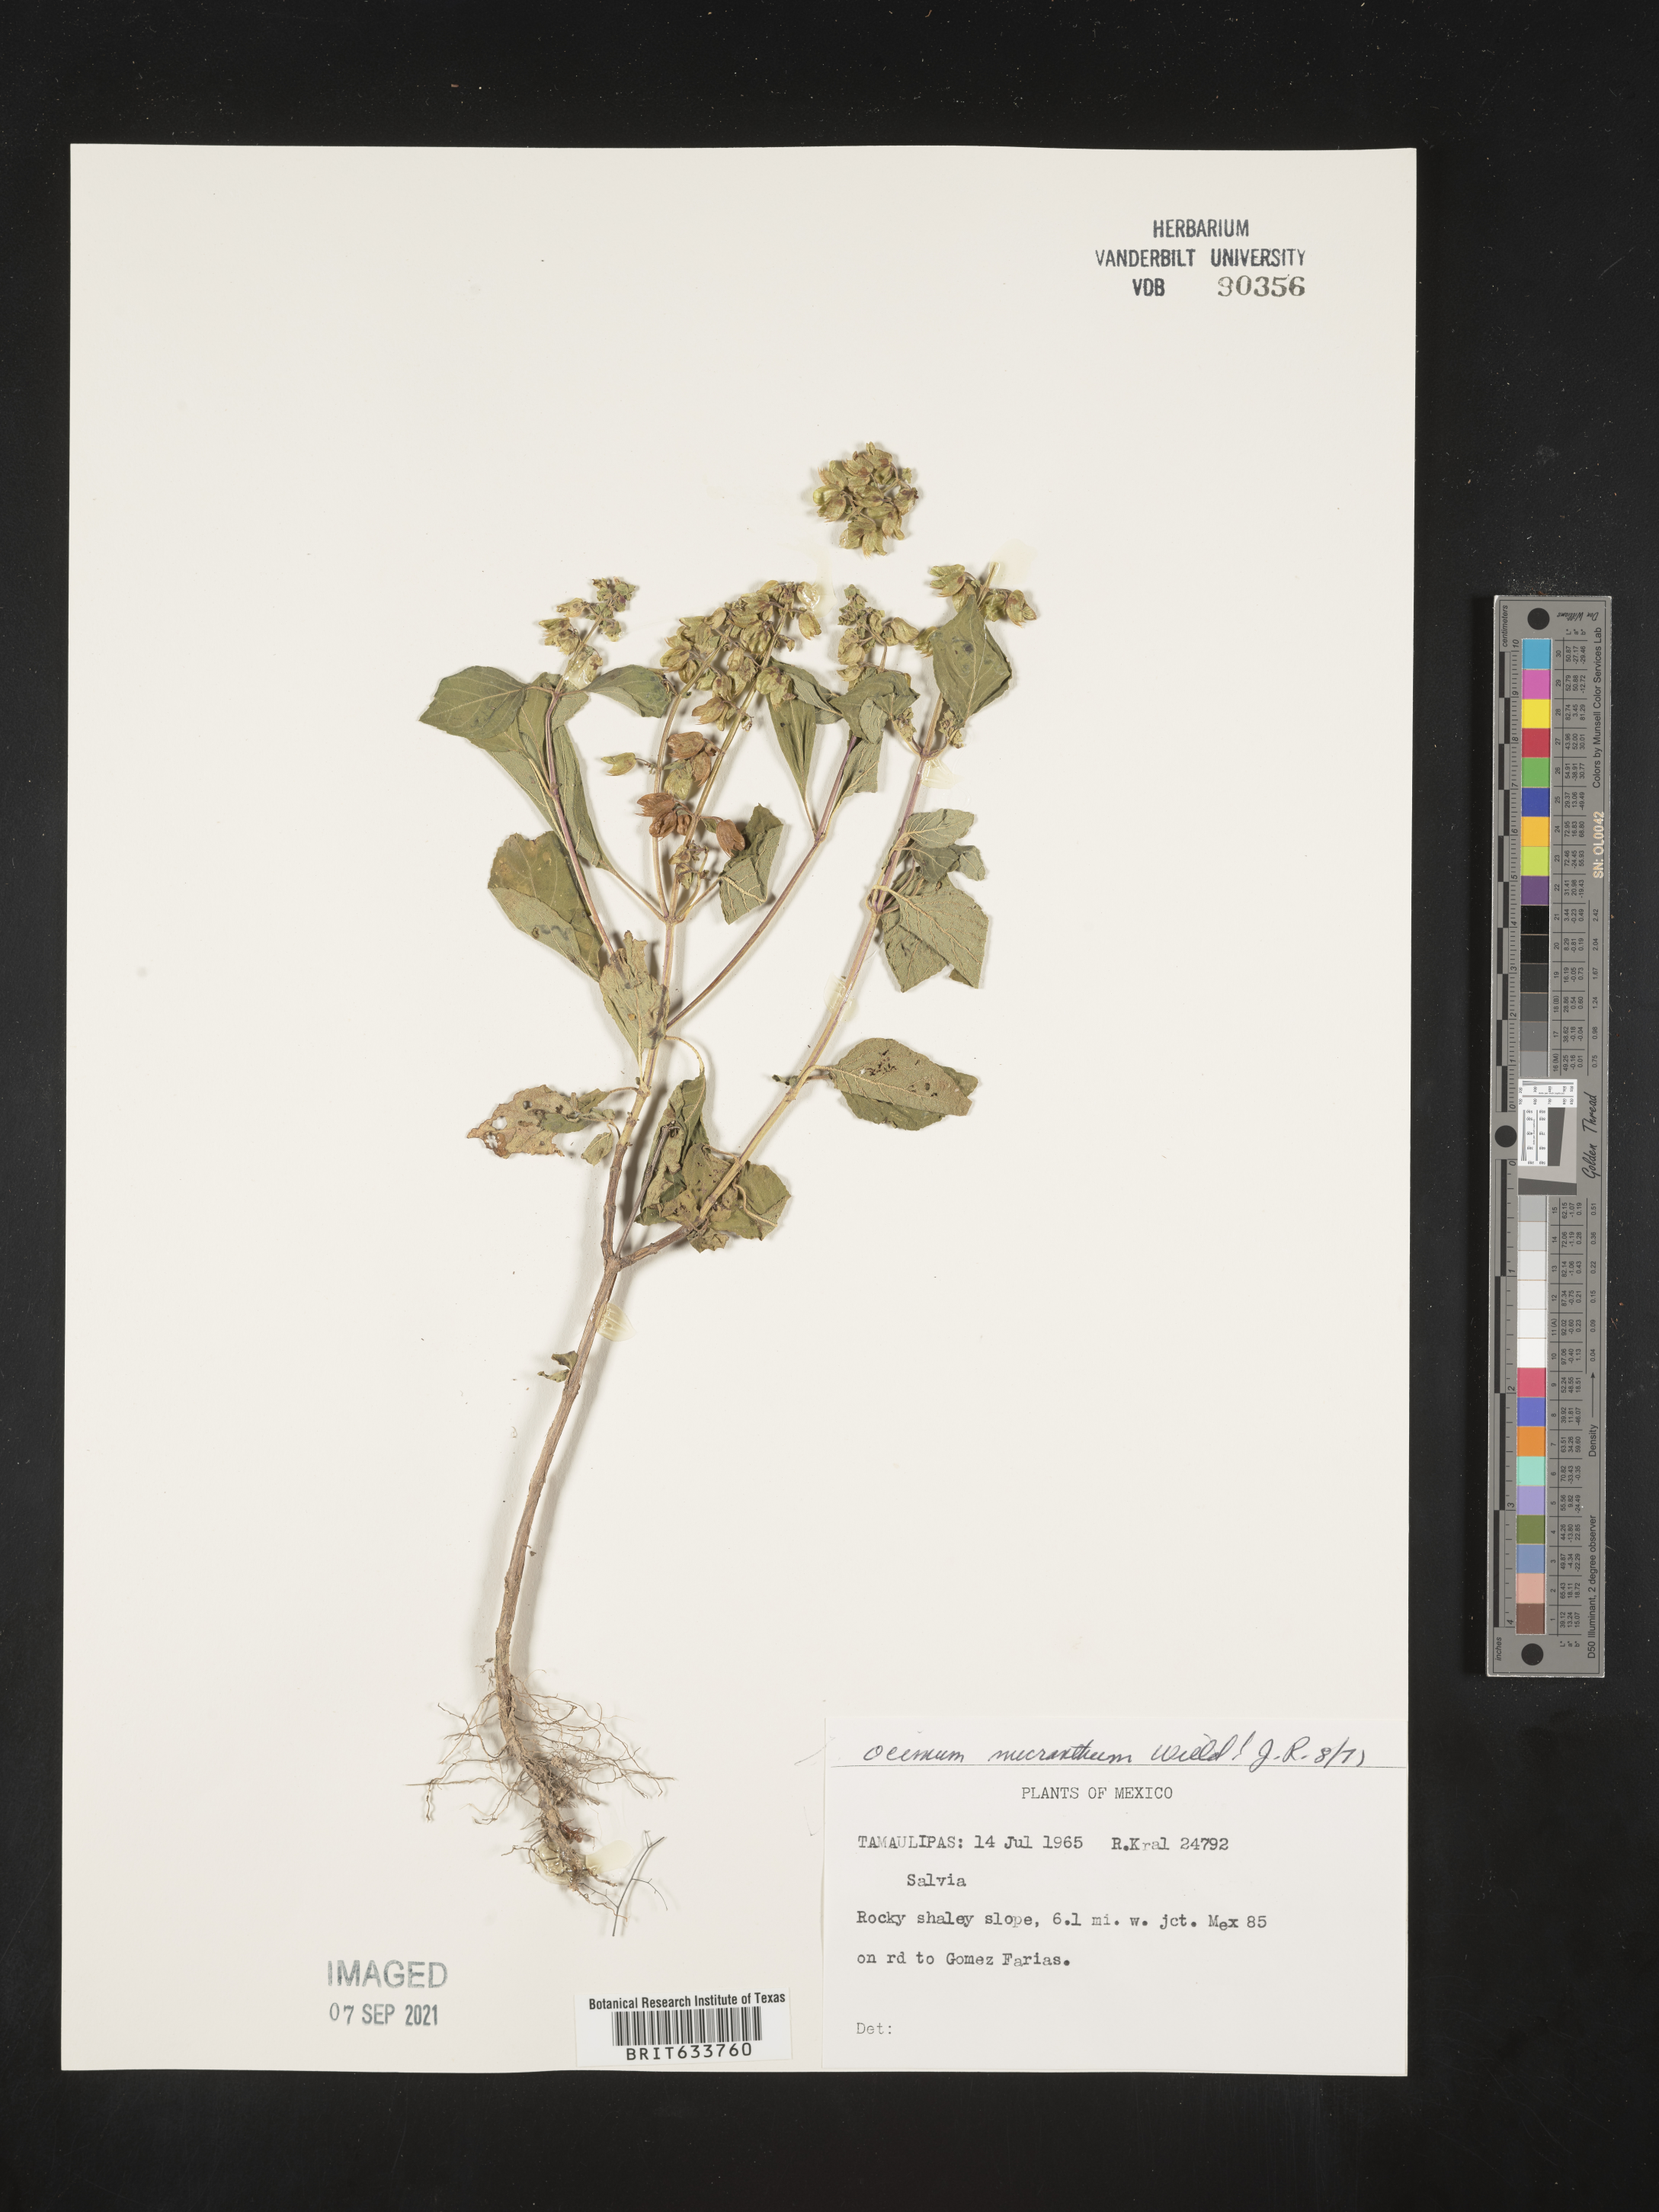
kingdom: Plantae
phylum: Tracheophyta
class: Magnoliopsida
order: Lamiales
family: Lamiaceae
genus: Ocimum
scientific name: Ocimum
